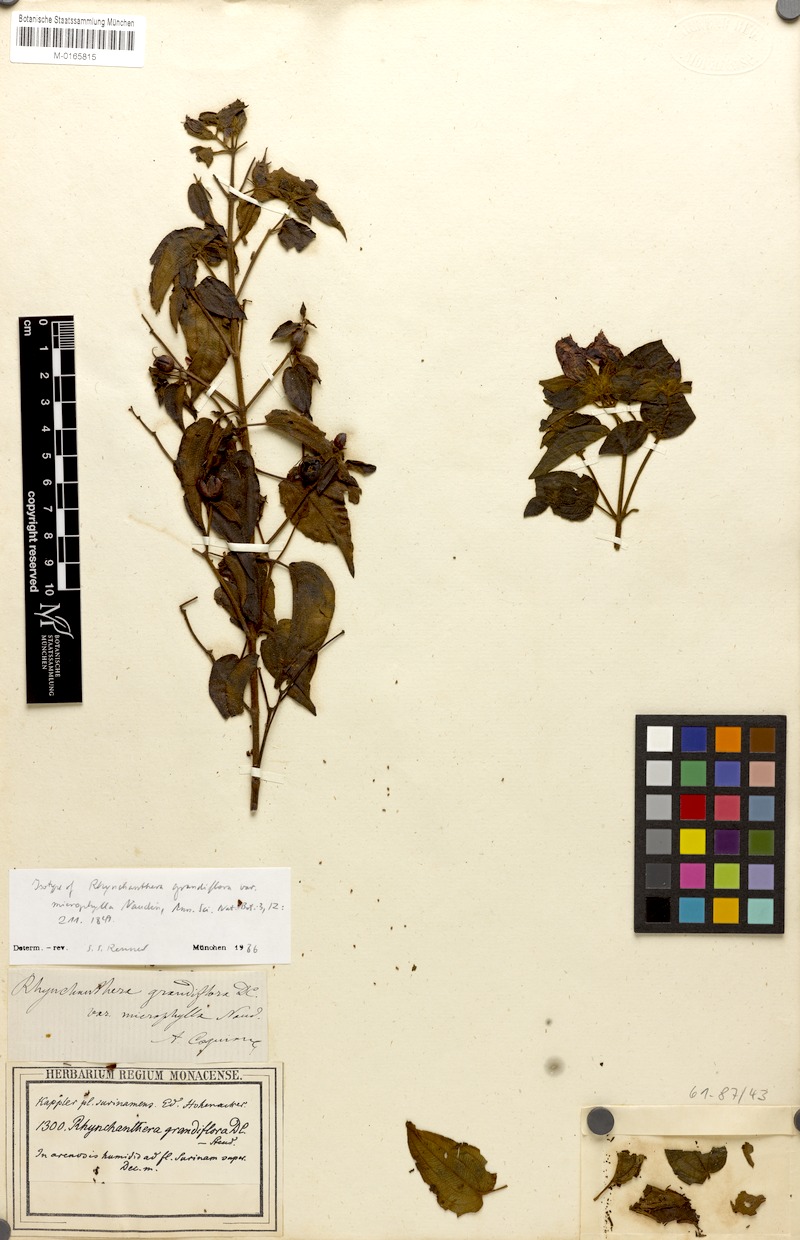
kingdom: Plantae
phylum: Tracheophyta
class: Magnoliopsida
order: Myrtales
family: Melastomataceae
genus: Rhynchanthera
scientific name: Rhynchanthera grandiflora
